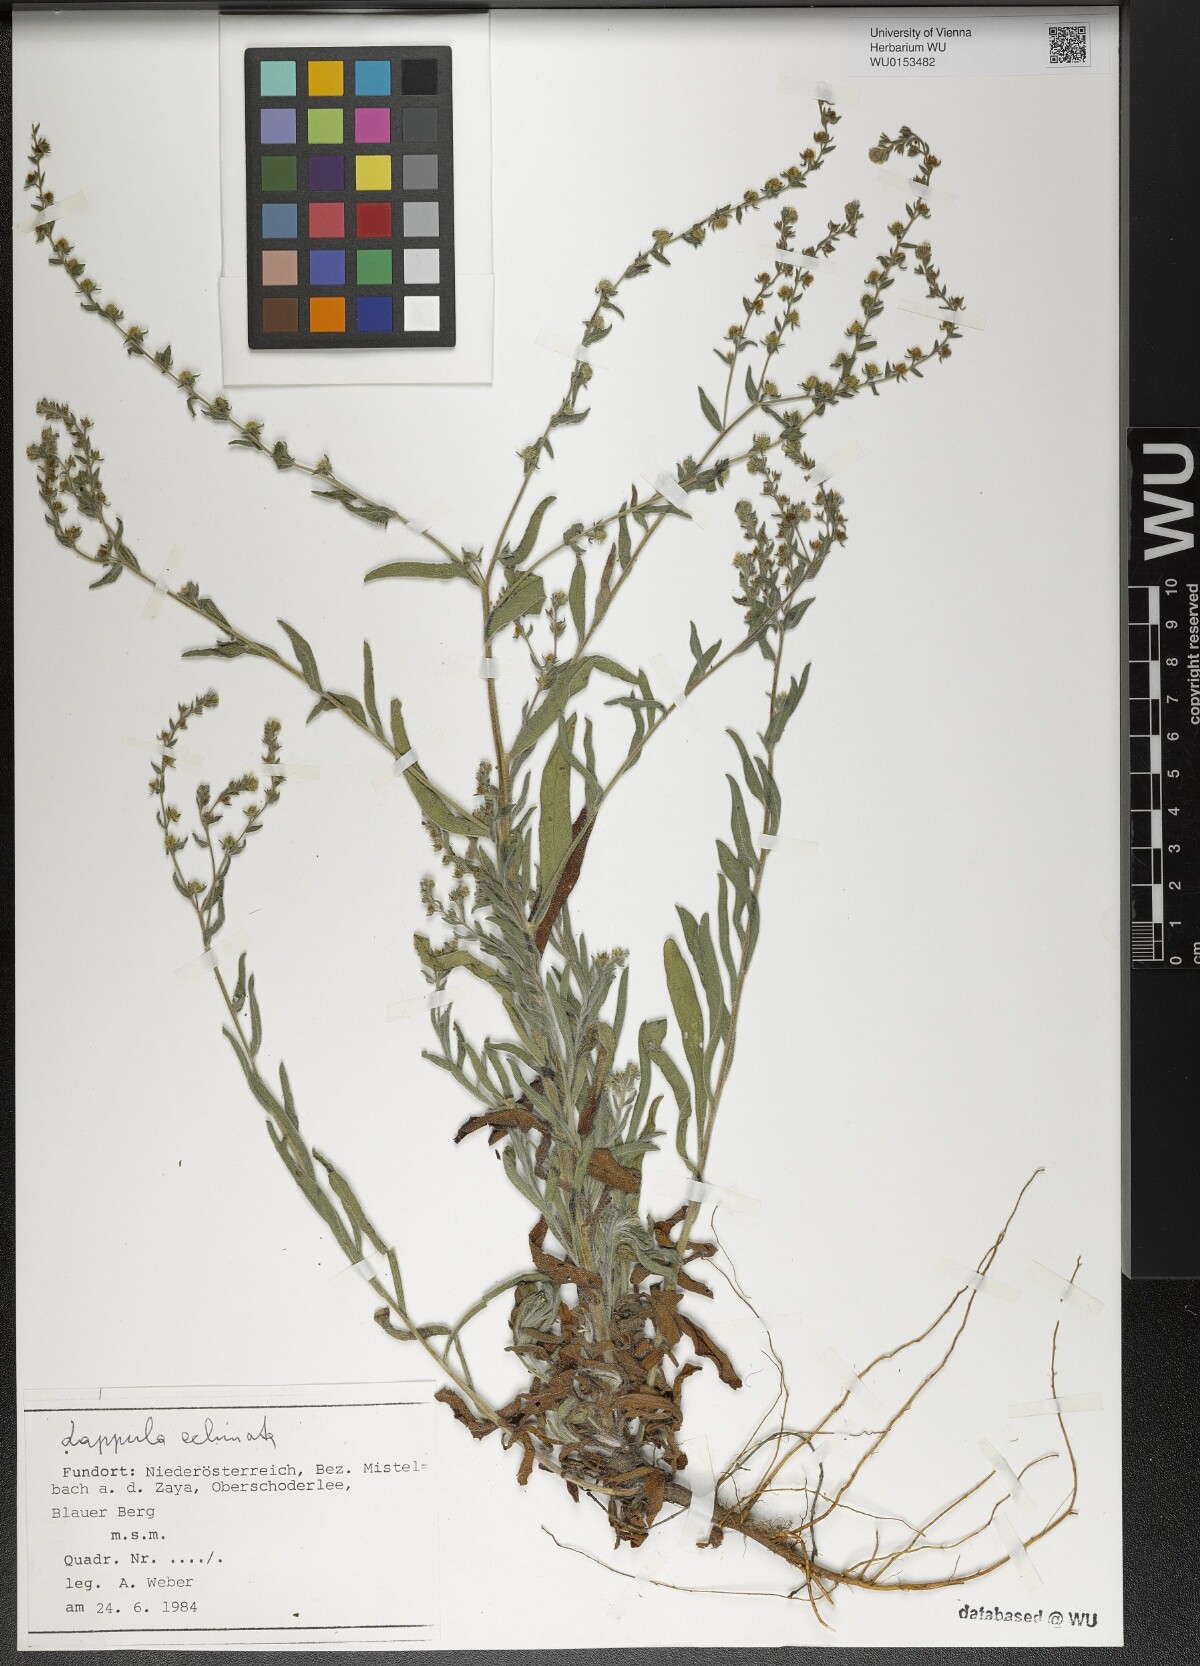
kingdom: Plantae
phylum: Tracheophyta
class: Magnoliopsida
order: Boraginales
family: Boraginaceae
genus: Lappula
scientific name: Lappula squarrosa
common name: European stickseed
